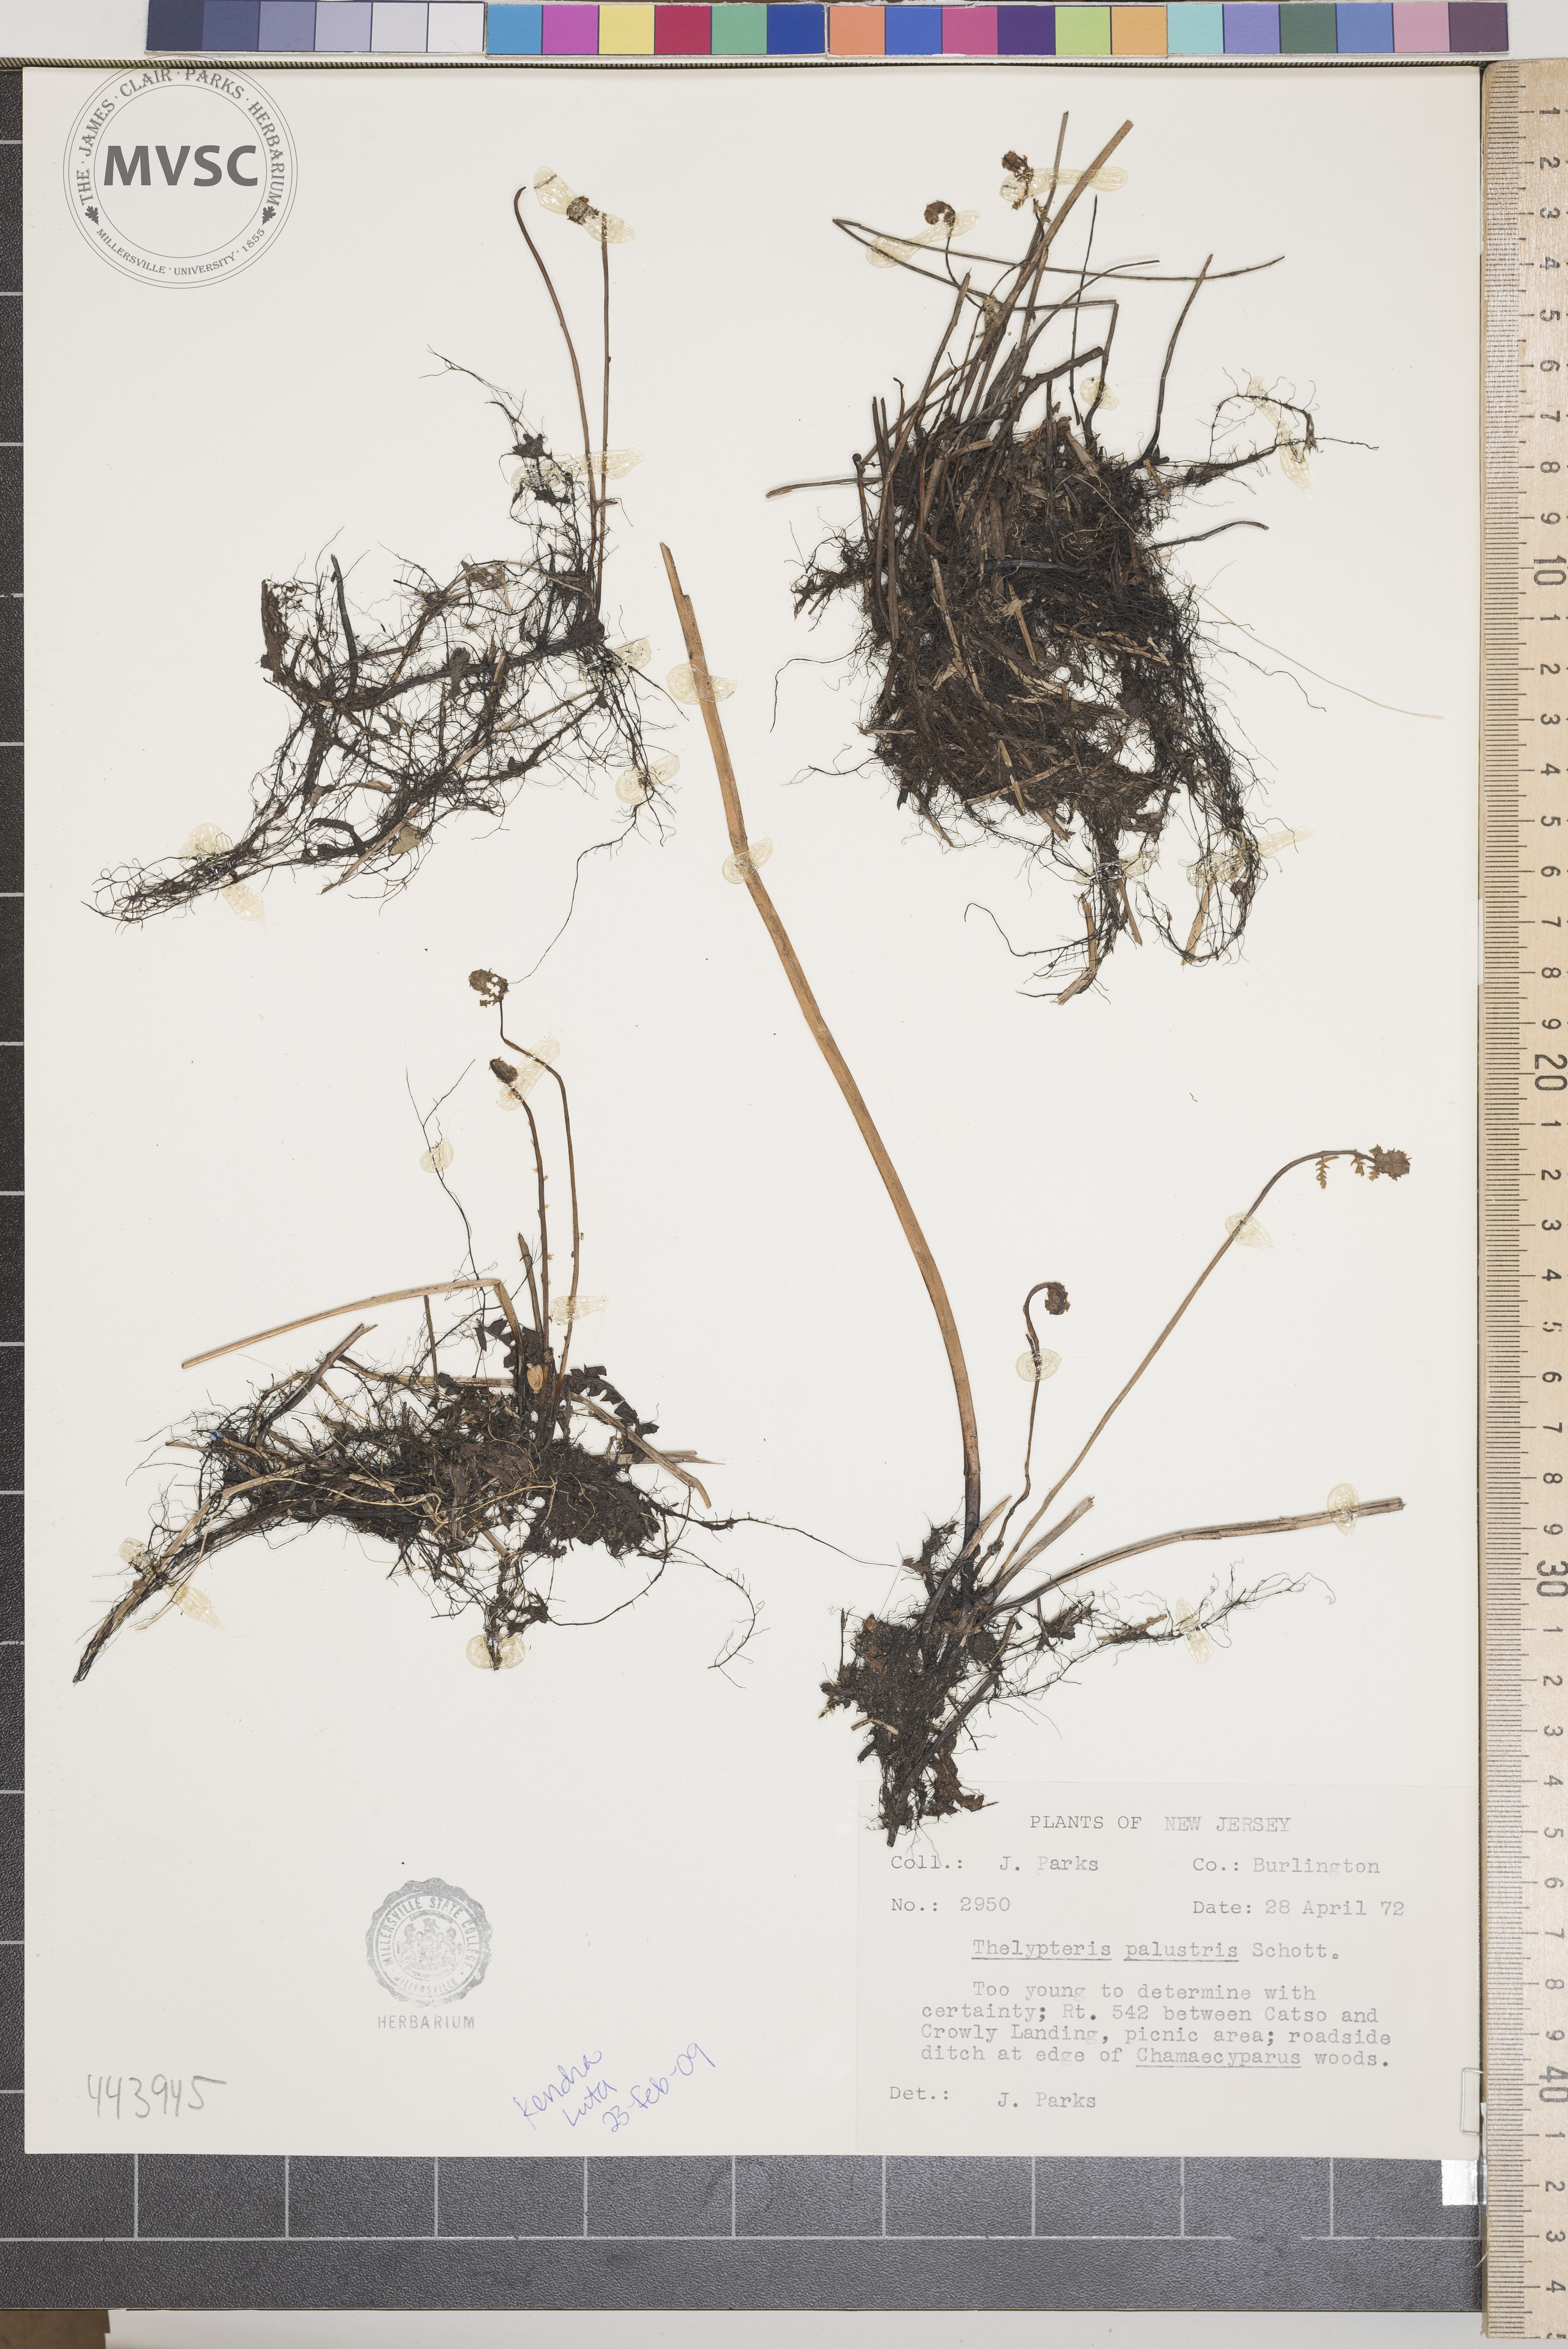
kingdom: Plantae
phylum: Tracheophyta
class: Polypodiopsida
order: Polypodiales
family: Thelypteridaceae
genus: Thelypteris
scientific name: Thelypteris palustris
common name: Marsh fern
